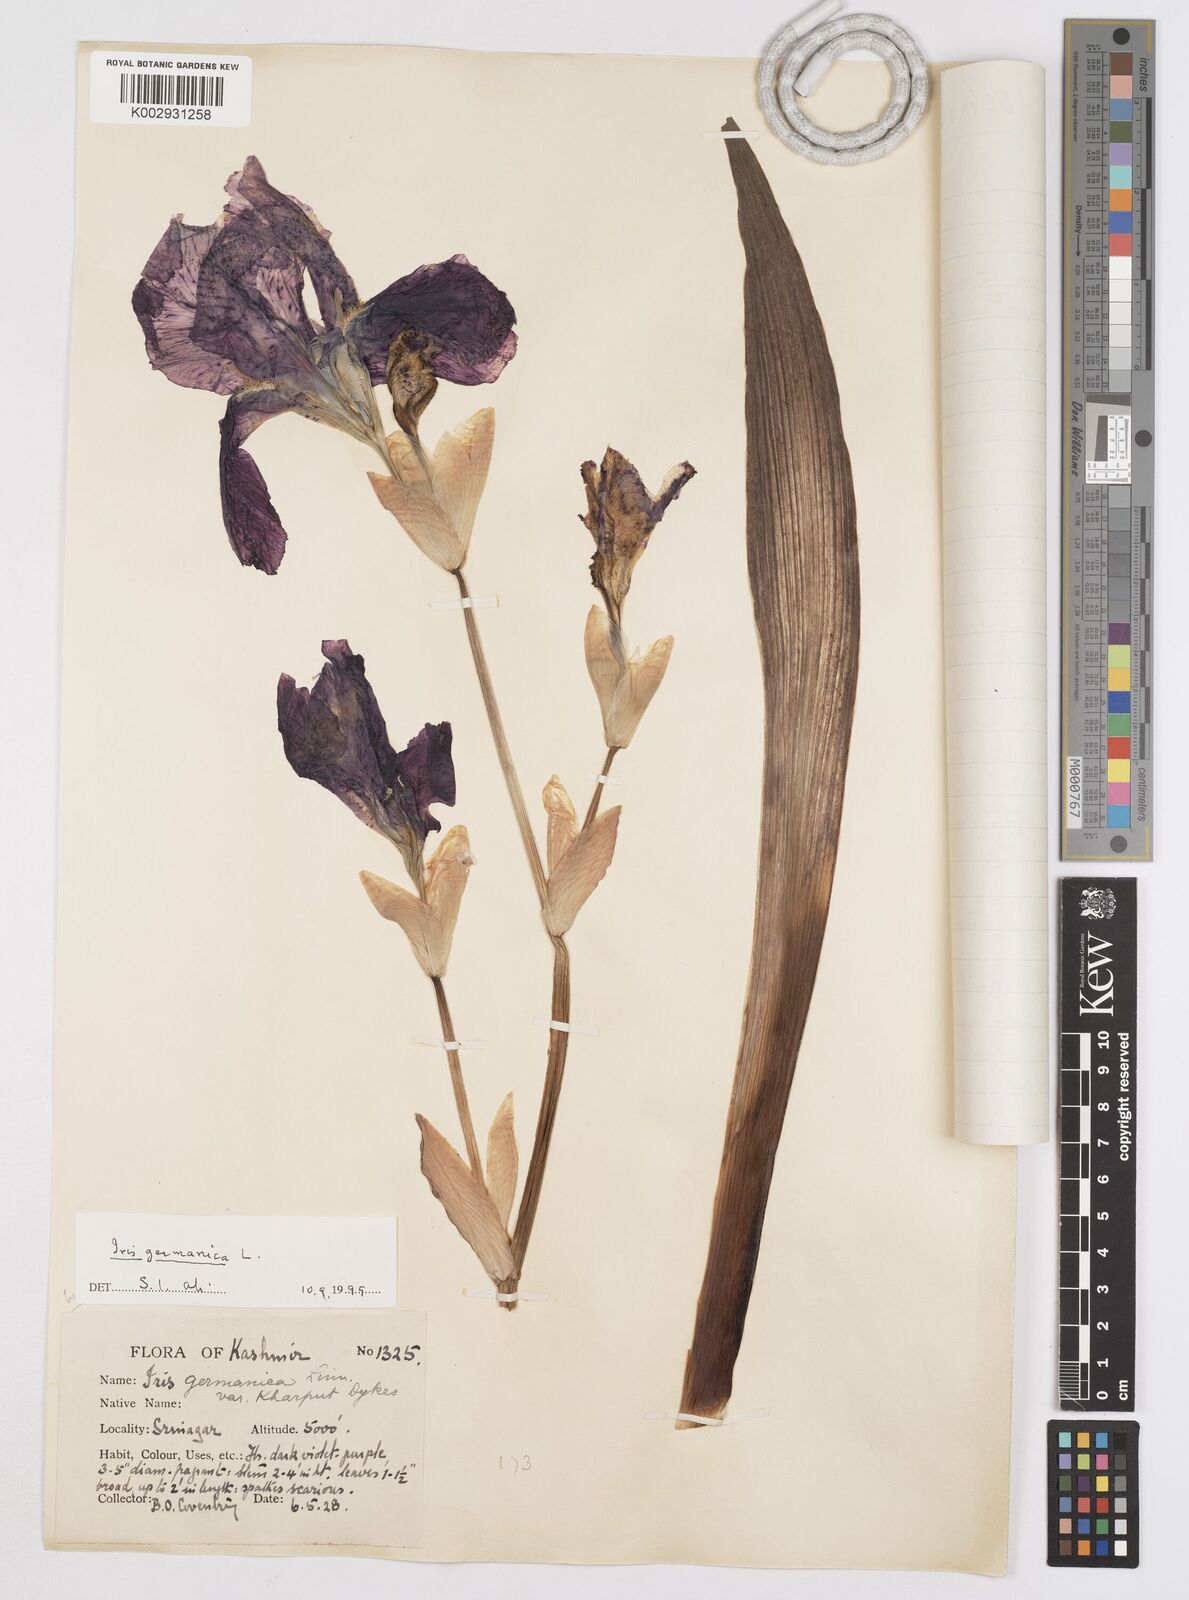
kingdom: Plantae
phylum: Tracheophyta
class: Liliopsida
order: Asparagales
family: Iridaceae
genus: Iris
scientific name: Iris germanica
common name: German iris
